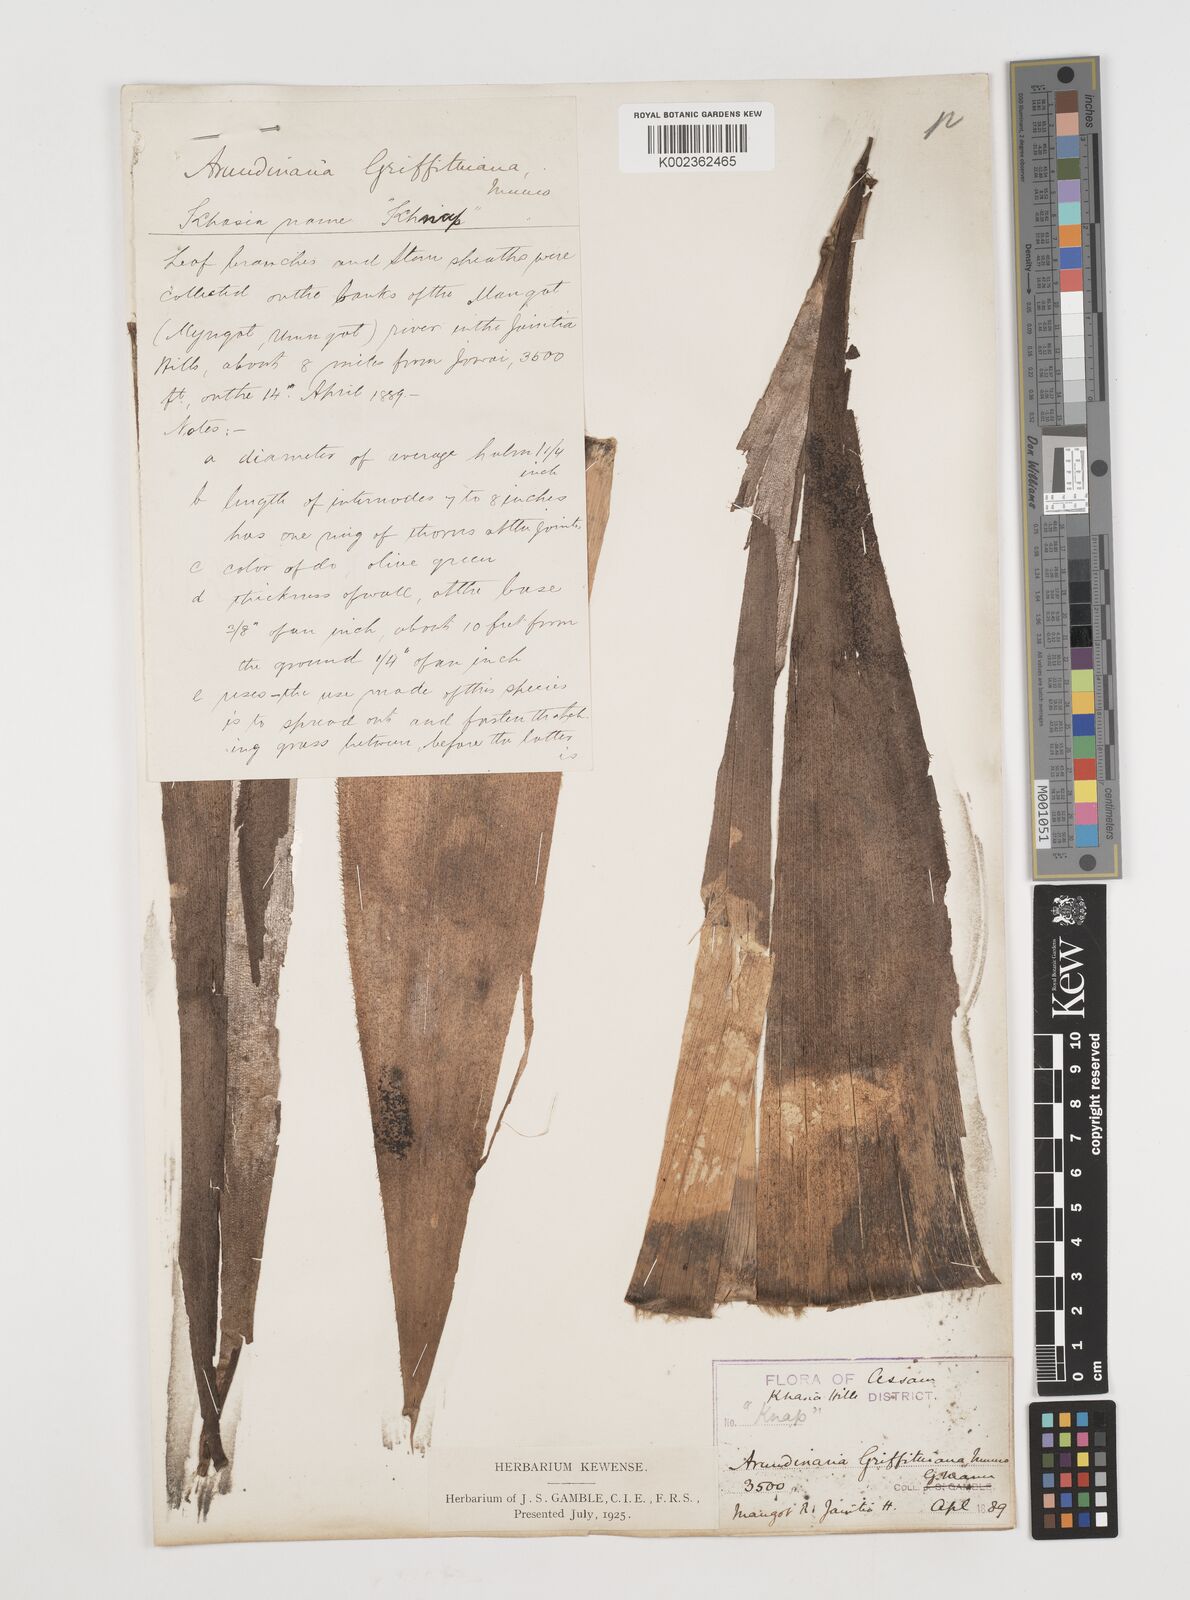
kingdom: Plantae
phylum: Tracheophyta
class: Liliopsida
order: Poales
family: Poaceae
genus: Chimonocalamus
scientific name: Chimonocalamus griffithianus
